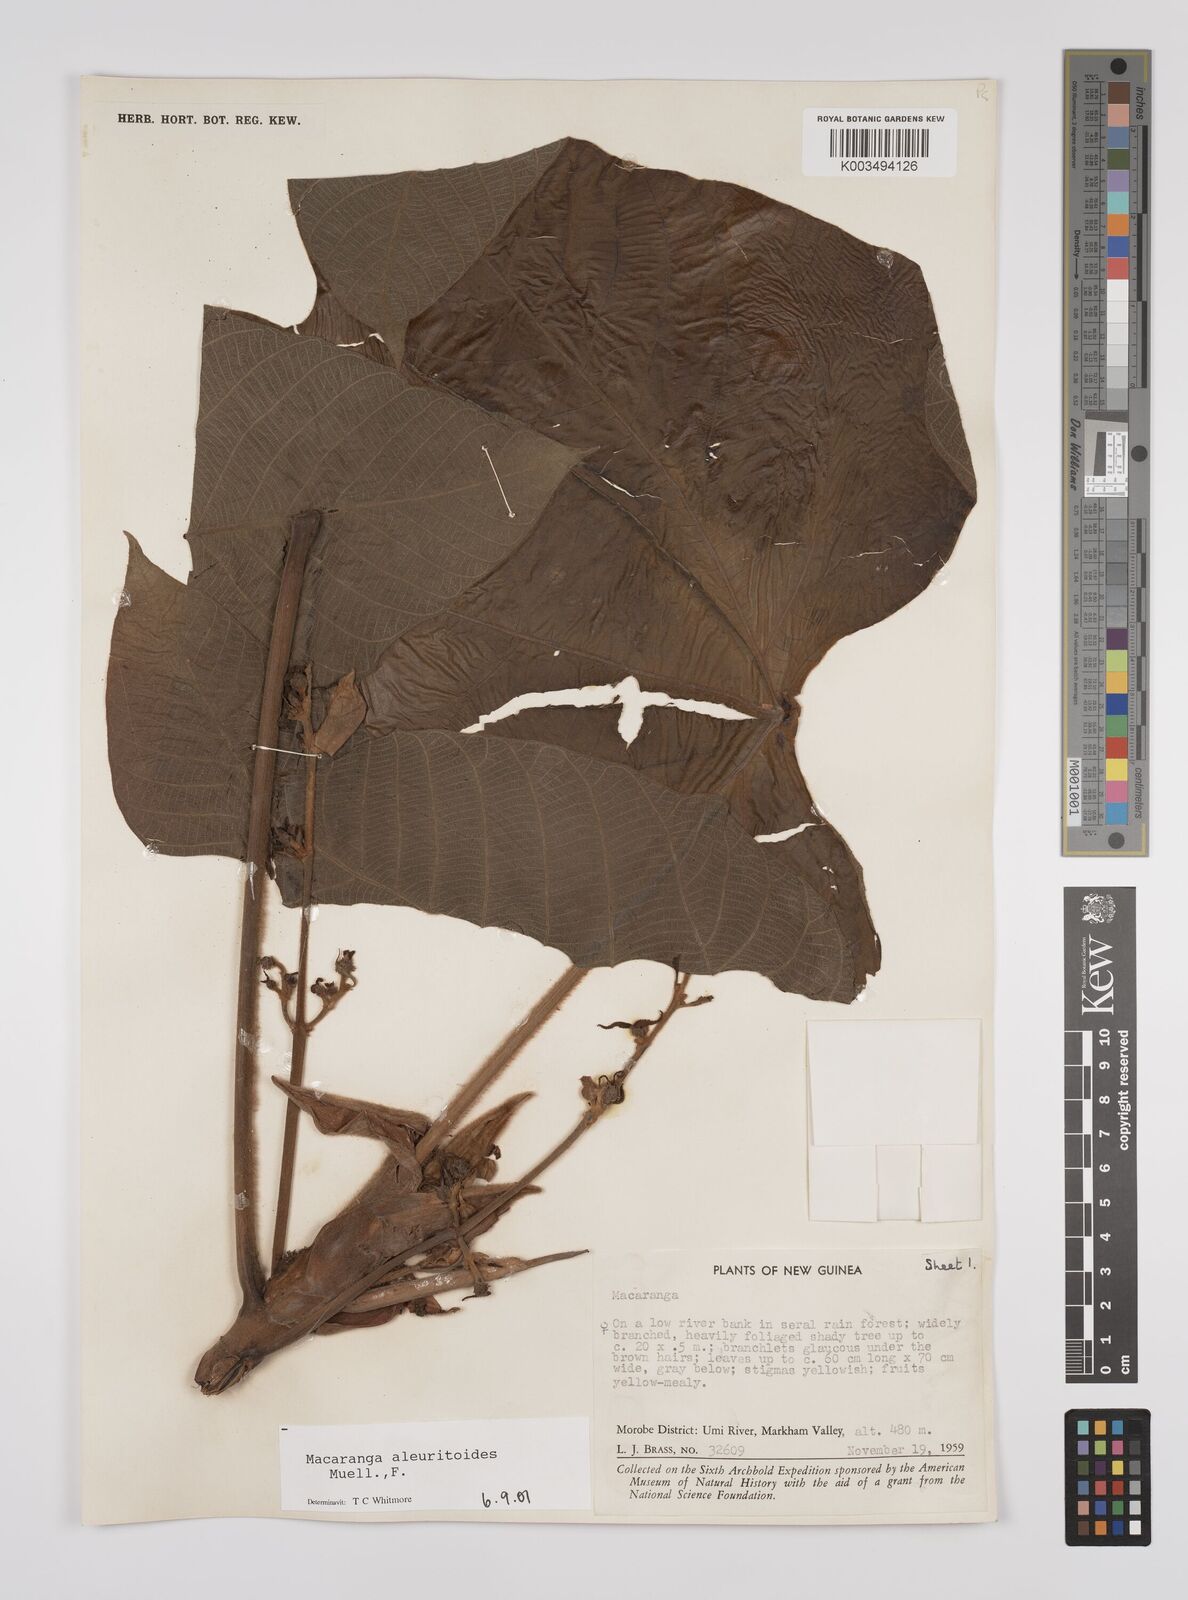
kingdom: Plantae
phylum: Tracheophyta
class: Magnoliopsida
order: Malpighiales
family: Euphorbiaceae
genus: Macaranga
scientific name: Macaranga aleuritoides
